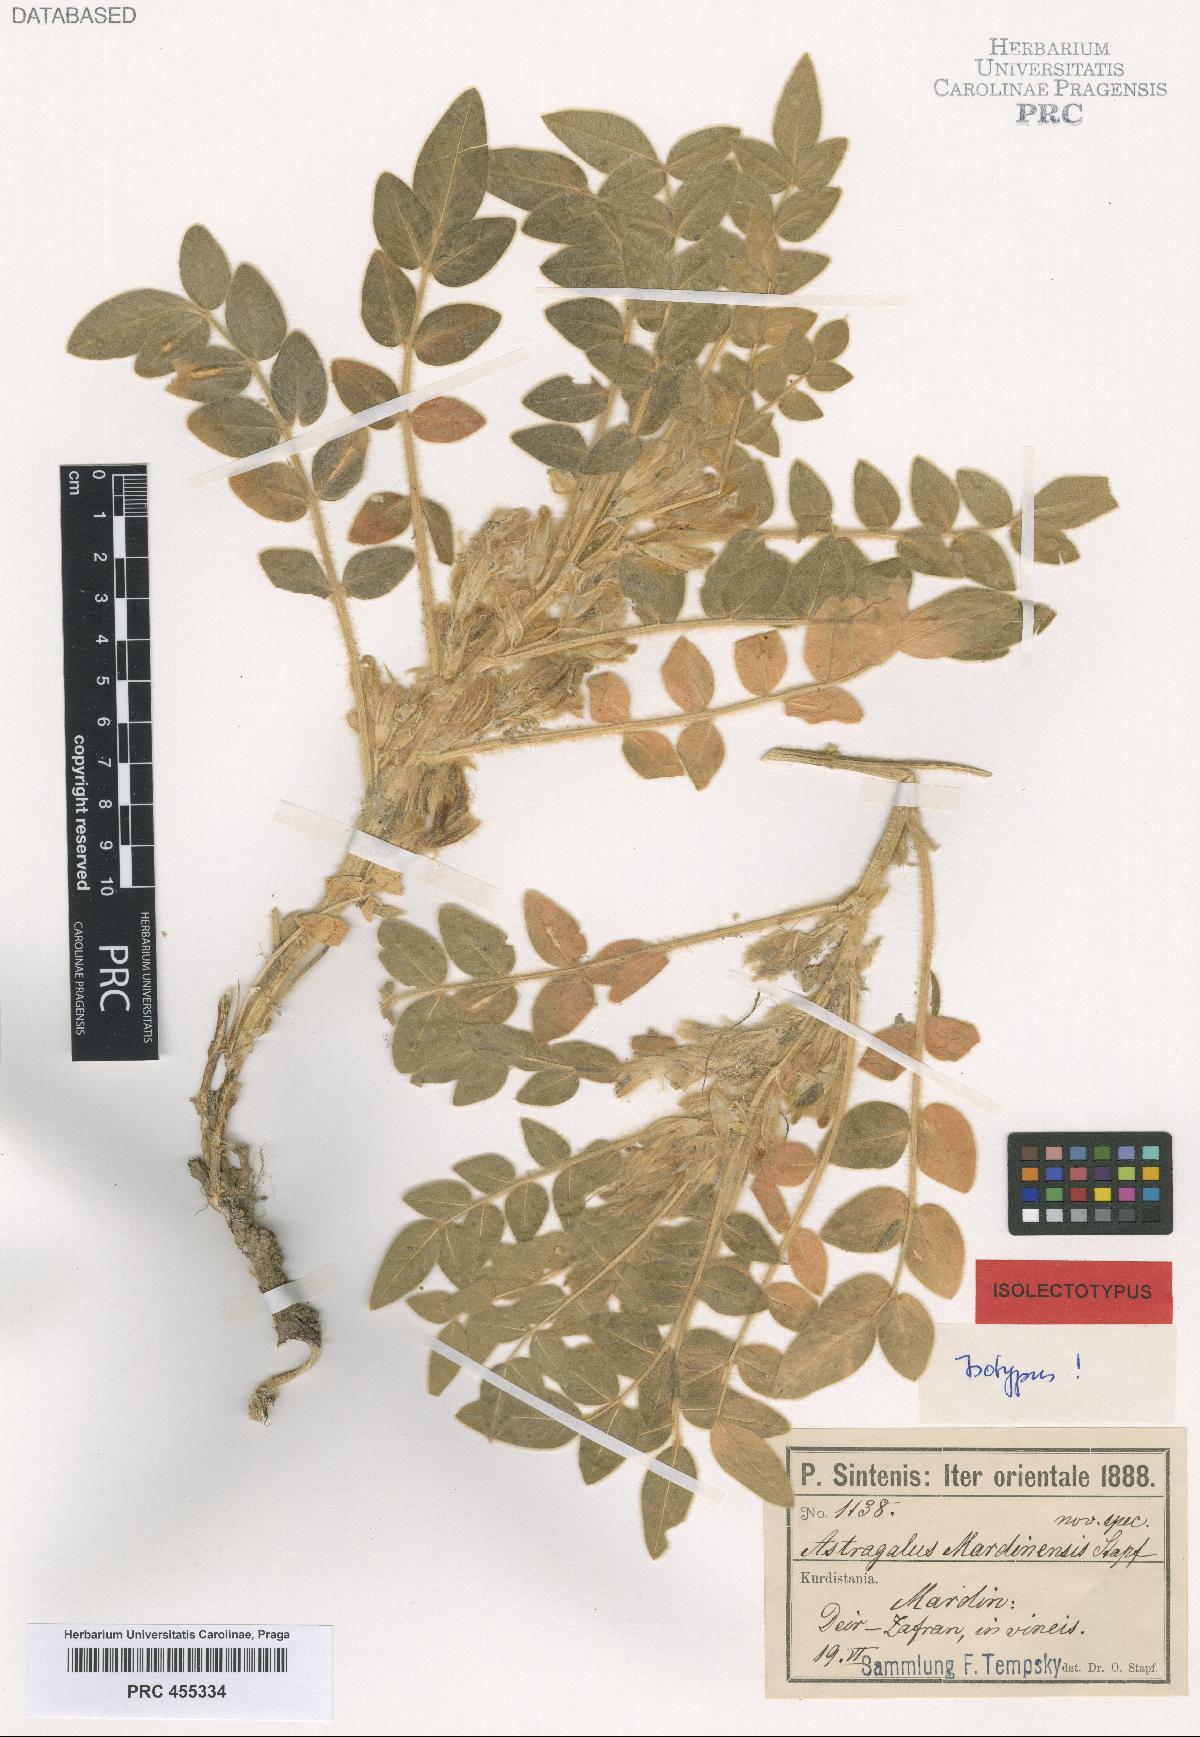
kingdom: Plantae
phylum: Tracheophyta
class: Magnoliopsida
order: Fabales
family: Fabaceae
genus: Astragalus
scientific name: Astragalus mardinensis
